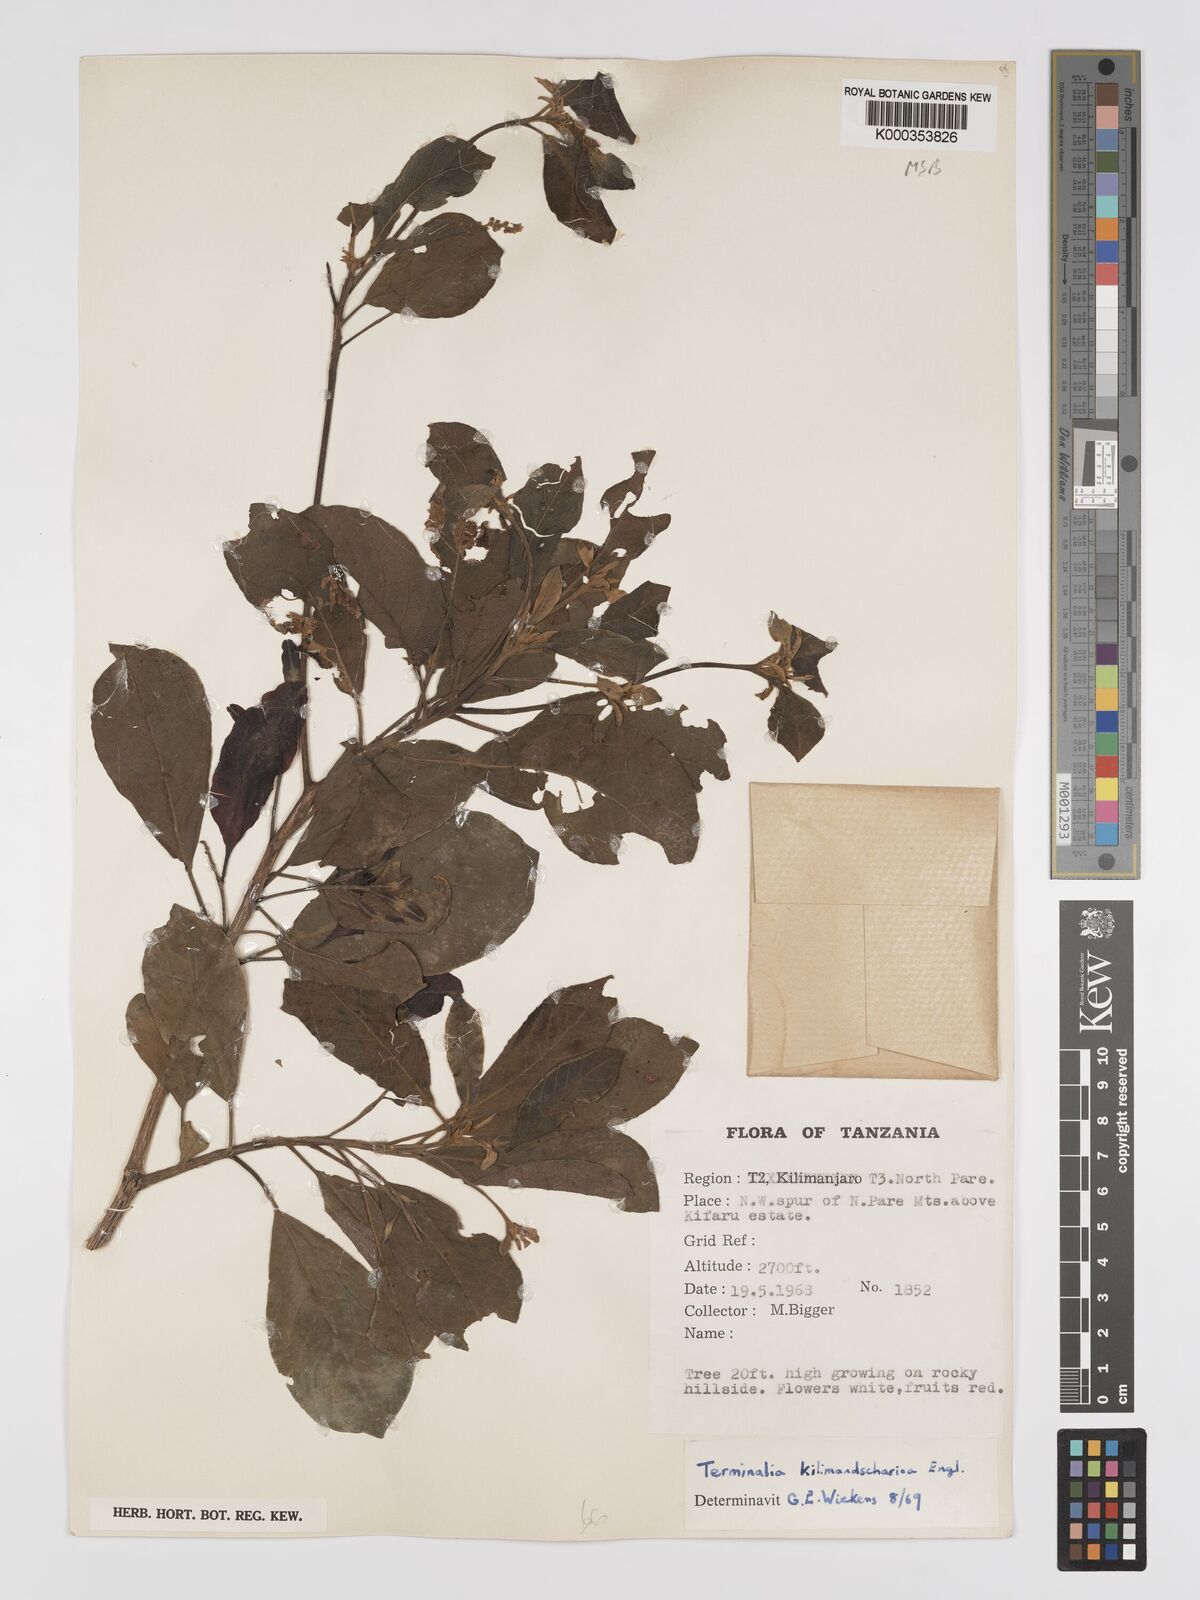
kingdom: Plantae
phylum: Tracheophyta
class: Magnoliopsida
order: Myrtales
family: Combretaceae
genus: Terminalia
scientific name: Terminalia kilimandscharica
